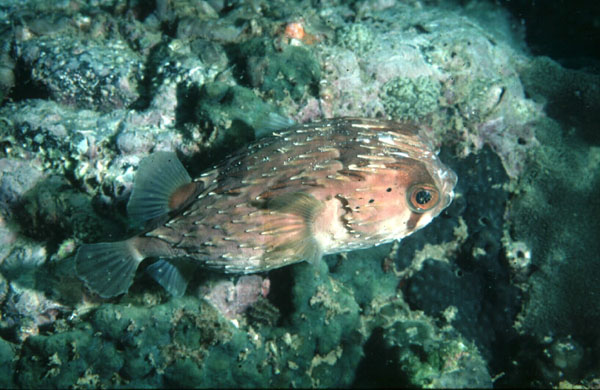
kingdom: Animalia
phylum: Chordata
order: Tetraodontiformes
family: Diodontidae
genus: Diodon
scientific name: Diodon holocanthus
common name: Balloonfish
